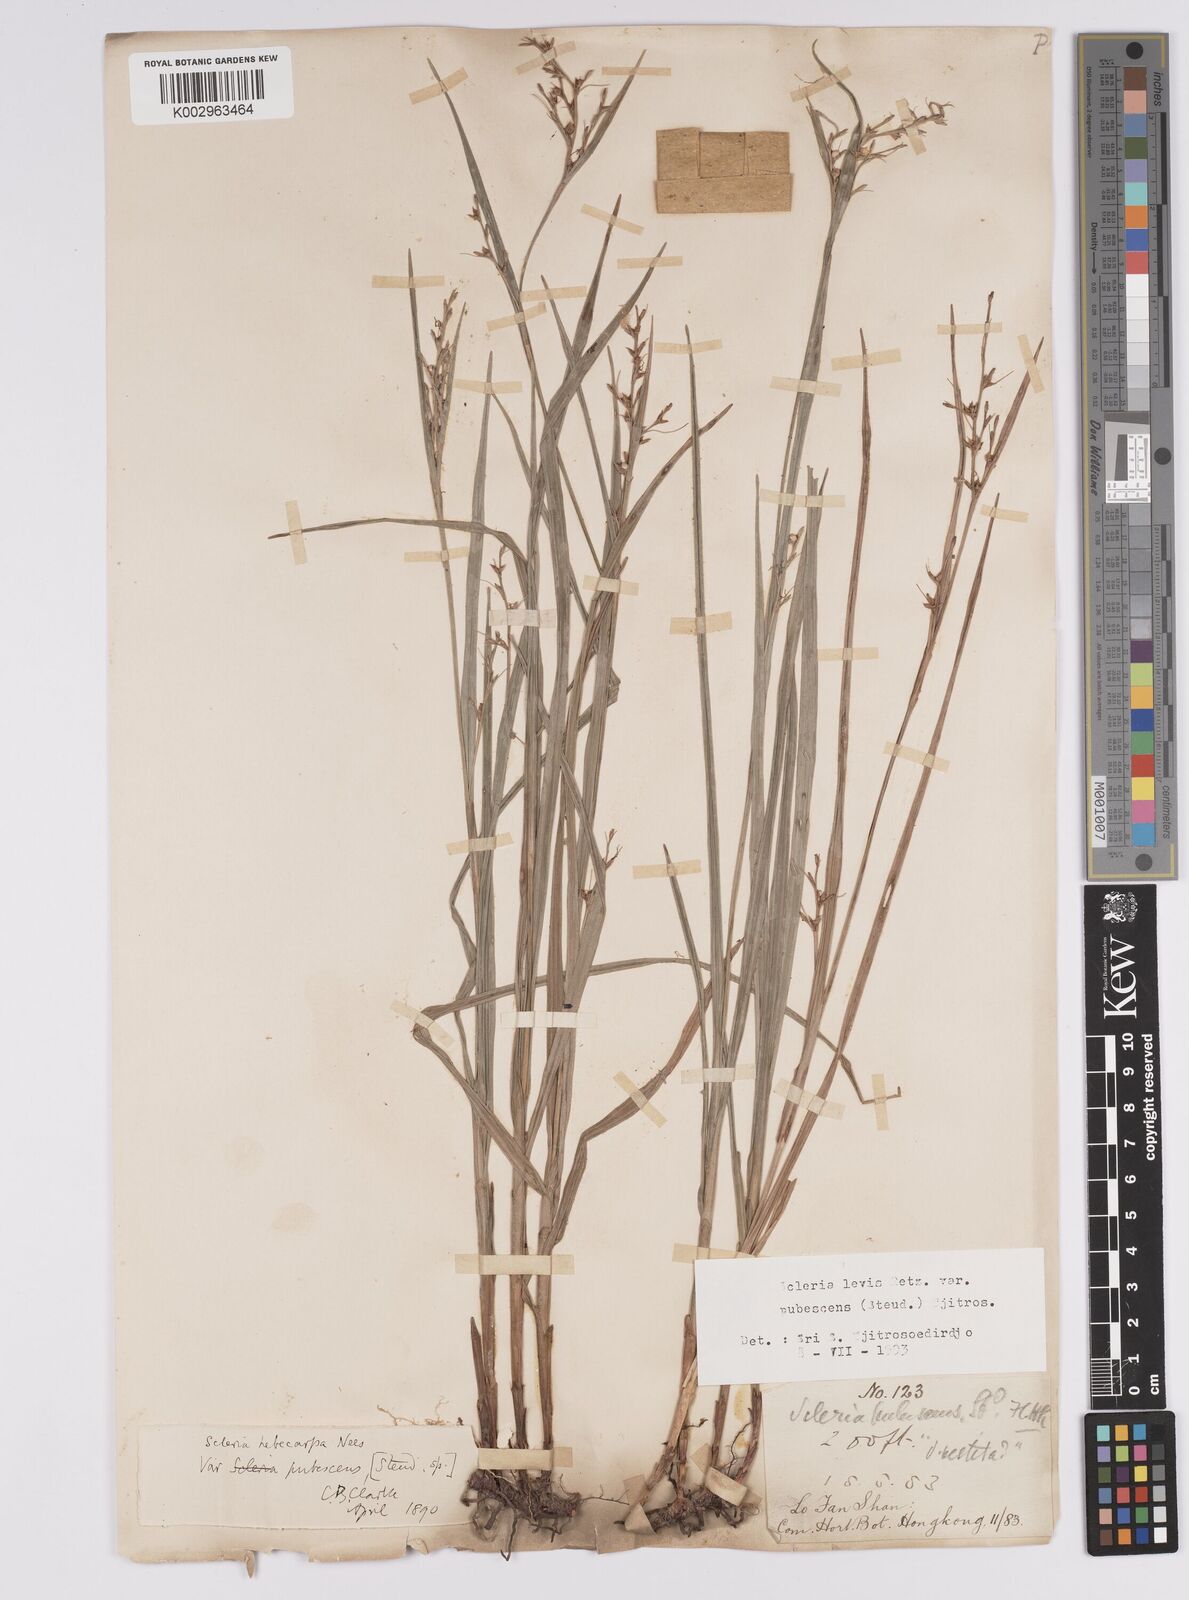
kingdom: Plantae
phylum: Tracheophyta
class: Liliopsida
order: Poales
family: Cyperaceae
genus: Scleria
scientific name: Scleria levis
